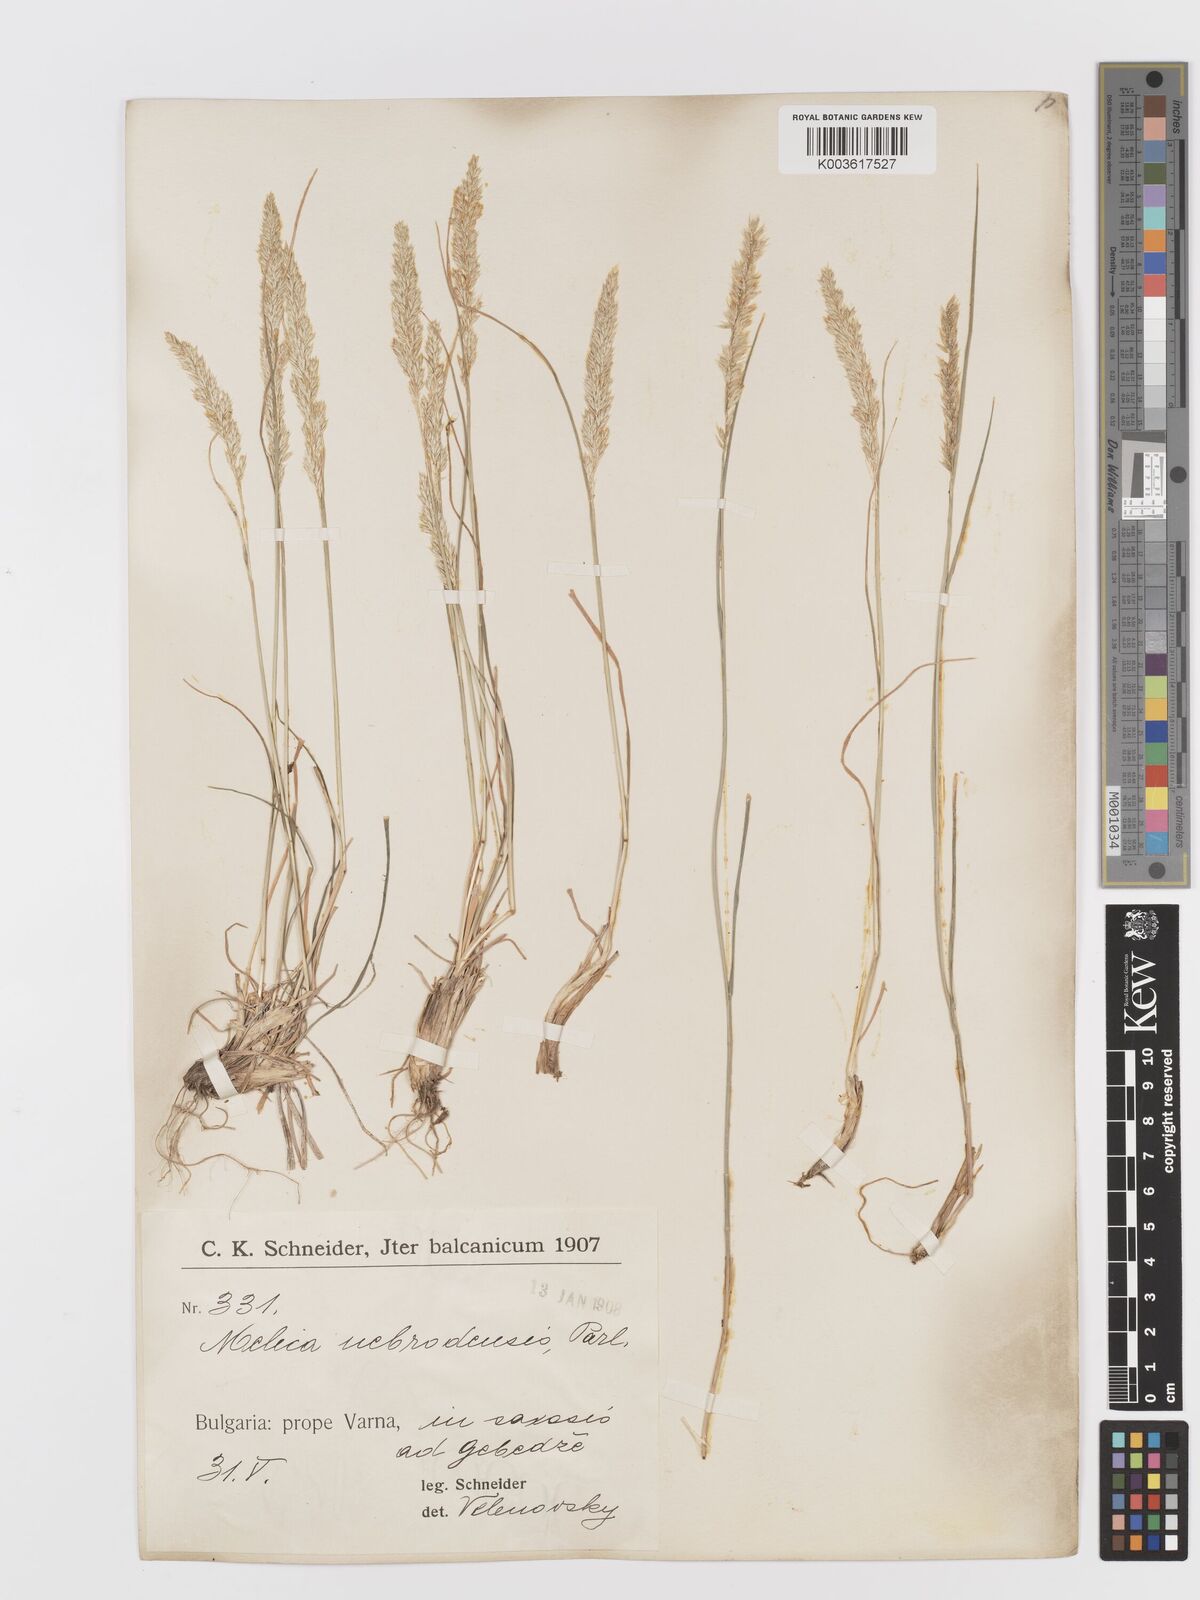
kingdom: Plantae
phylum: Tracheophyta
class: Liliopsida
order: Poales
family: Poaceae
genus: Koeleria
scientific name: Koeleria
